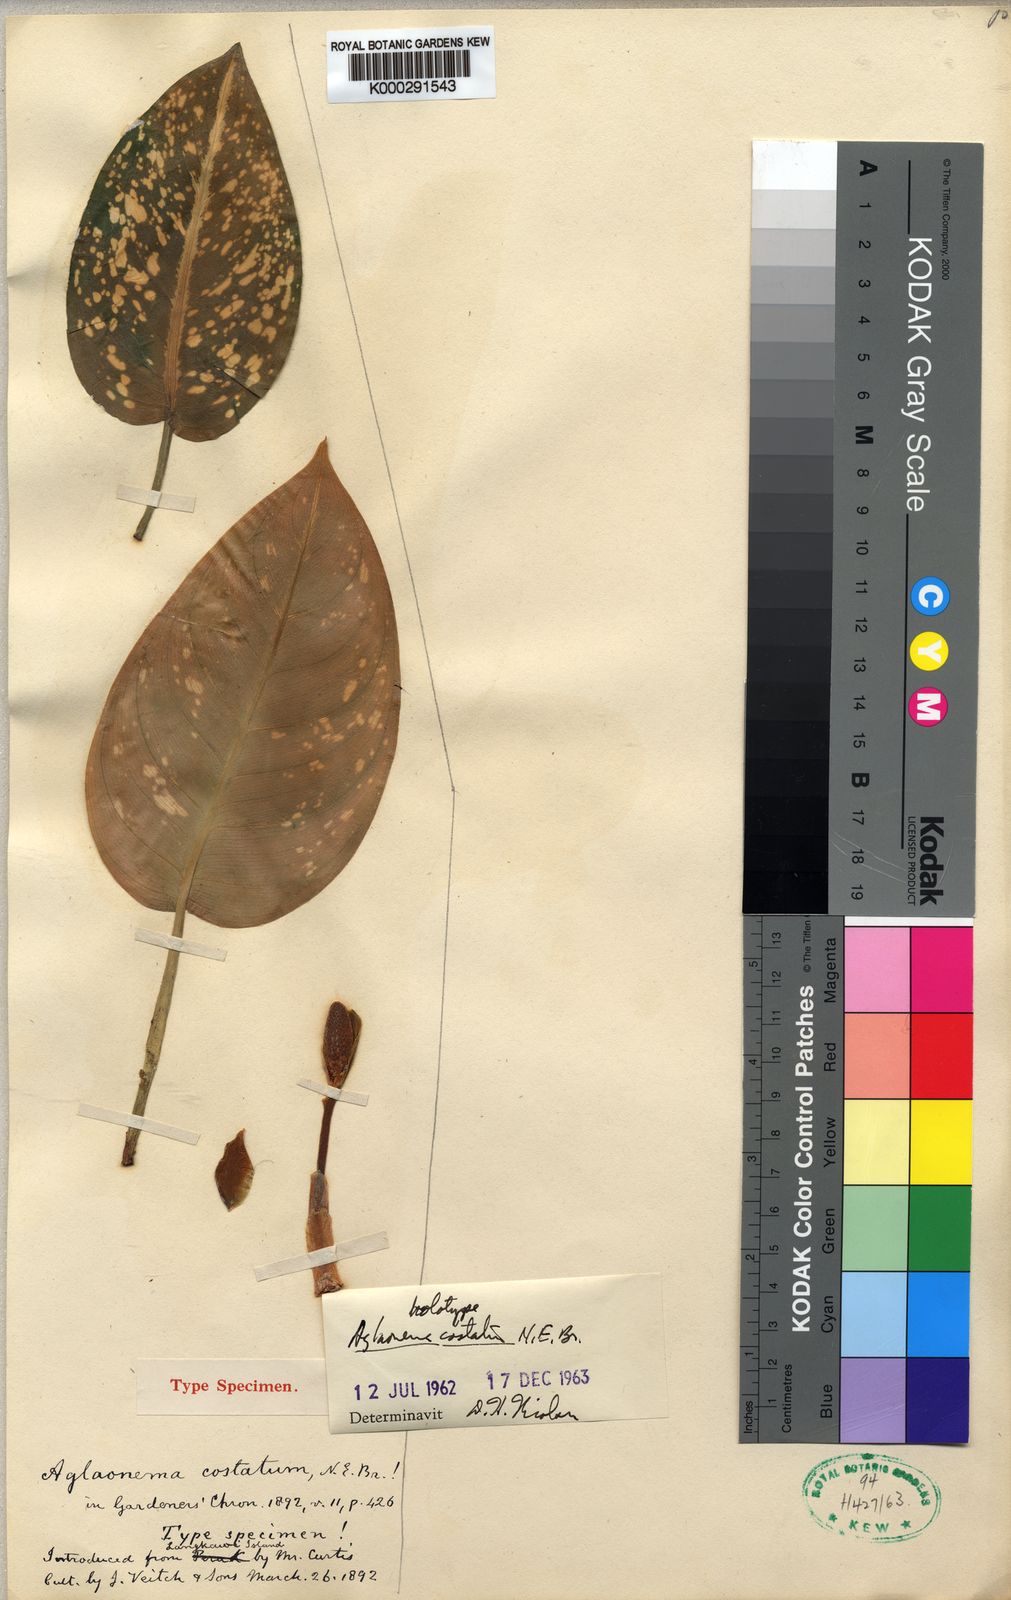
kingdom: Plantae
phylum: Tracheophyta
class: Liliopsida
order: Alismatales
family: Araceae
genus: Aglaonema
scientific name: Aglaonema costatum
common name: Chinese evergreen
